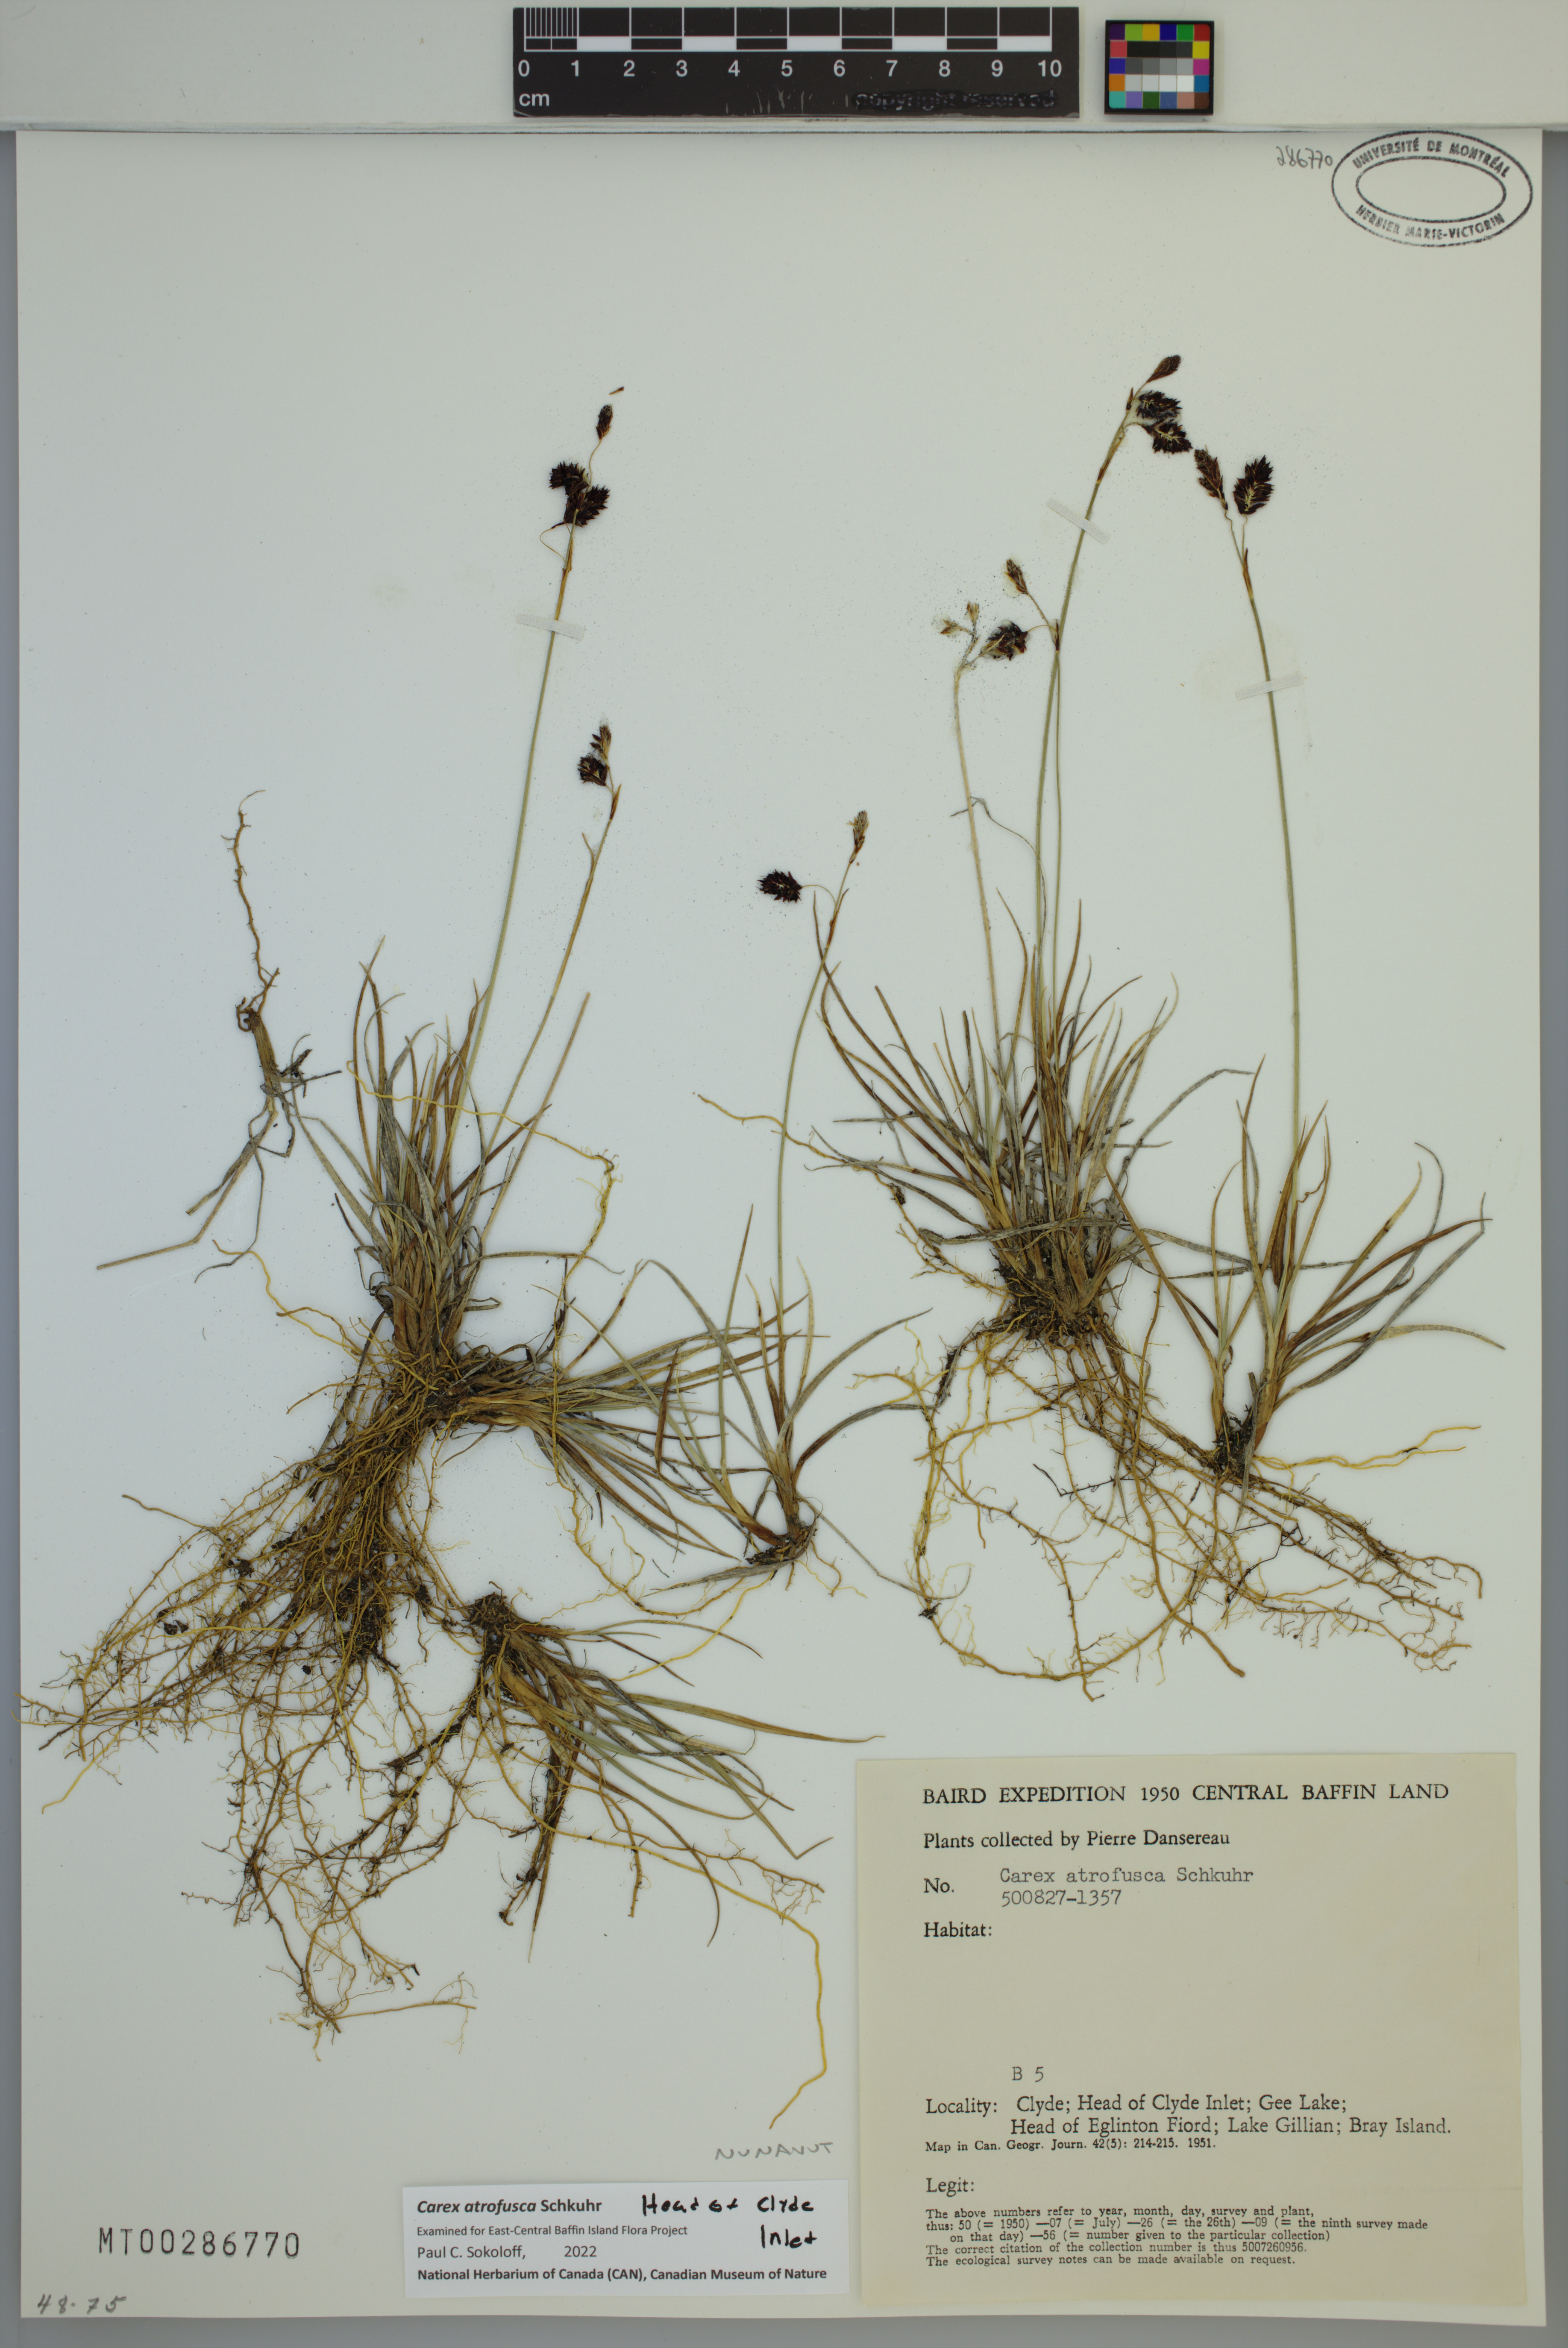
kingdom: Plantae
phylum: Tracheophyta
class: Liliopsida
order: Poales
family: Cyperaceae
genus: Carex
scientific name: Carex atrofusca
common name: Scorched alpine-sedge
